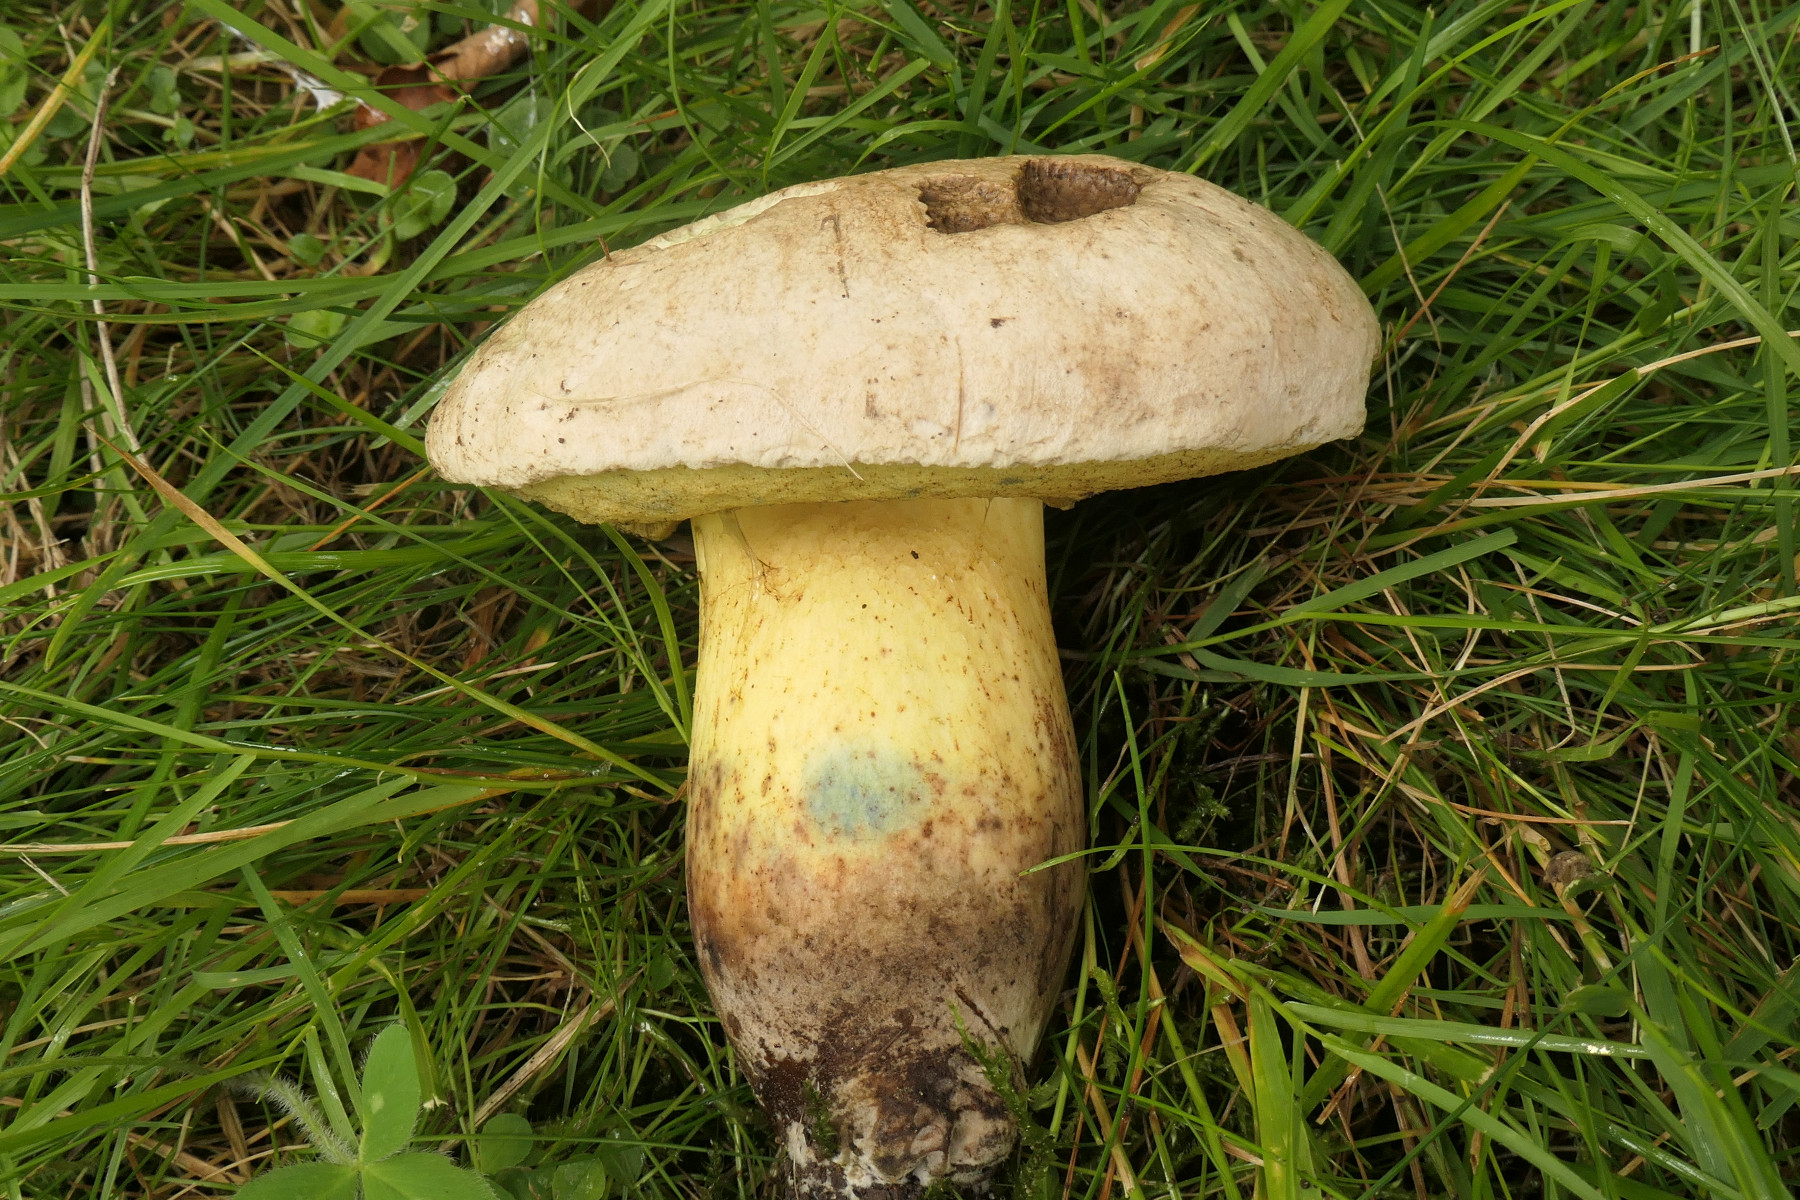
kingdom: Fungi
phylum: Basidiomycota
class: Agaricomycetes
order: Boletales
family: Boletaceae
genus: Caloboletus
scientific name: Caloboletus radicans
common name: rod-rørhat
